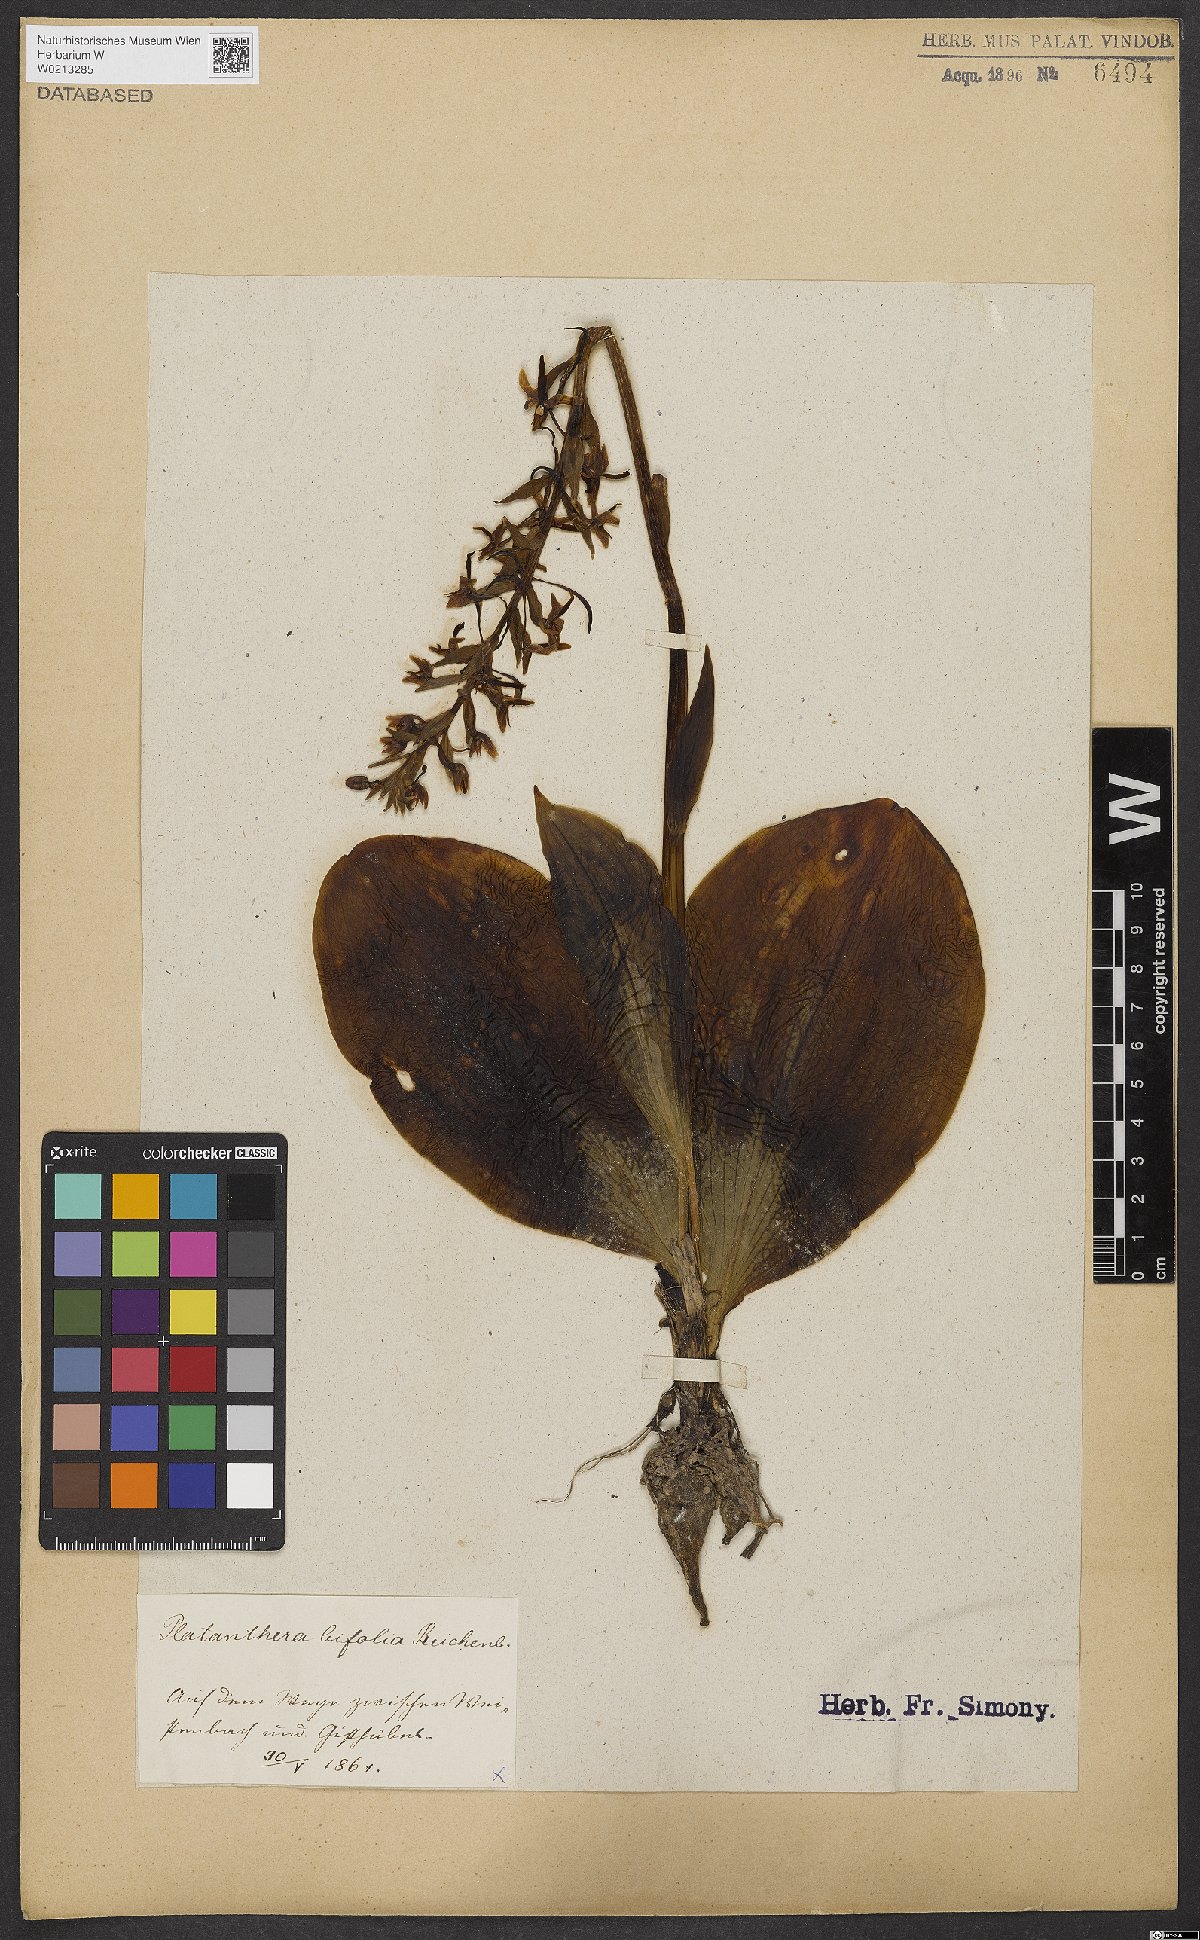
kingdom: Plantae
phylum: Tracheophyta
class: Liliopsida
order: Asparagales
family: Orchidaceae
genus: Platanthera
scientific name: Platanthera bifolia
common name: Lesser butterfly-orchid
